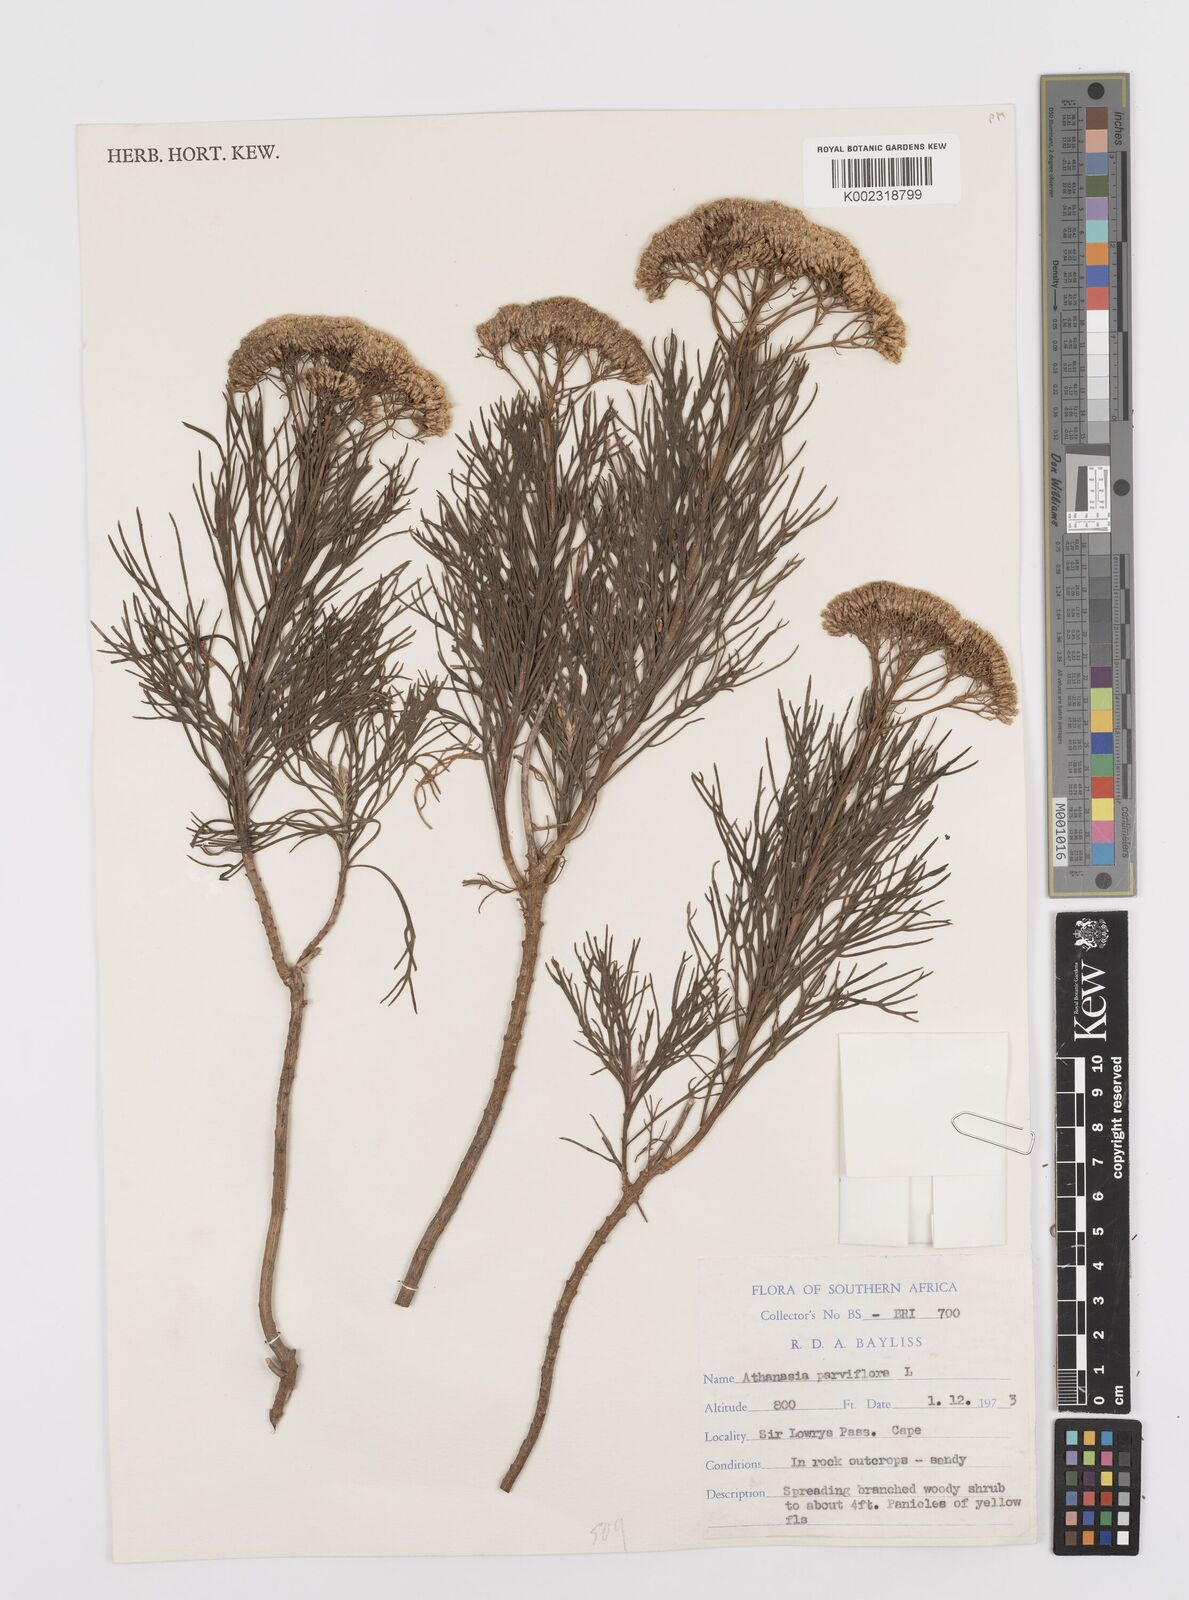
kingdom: Plantae
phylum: Tracheophyta
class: Magnoliopsida
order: Asterales
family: Asteraceae
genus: Hymenolepis
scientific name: Hymenolepis crithmifolia
